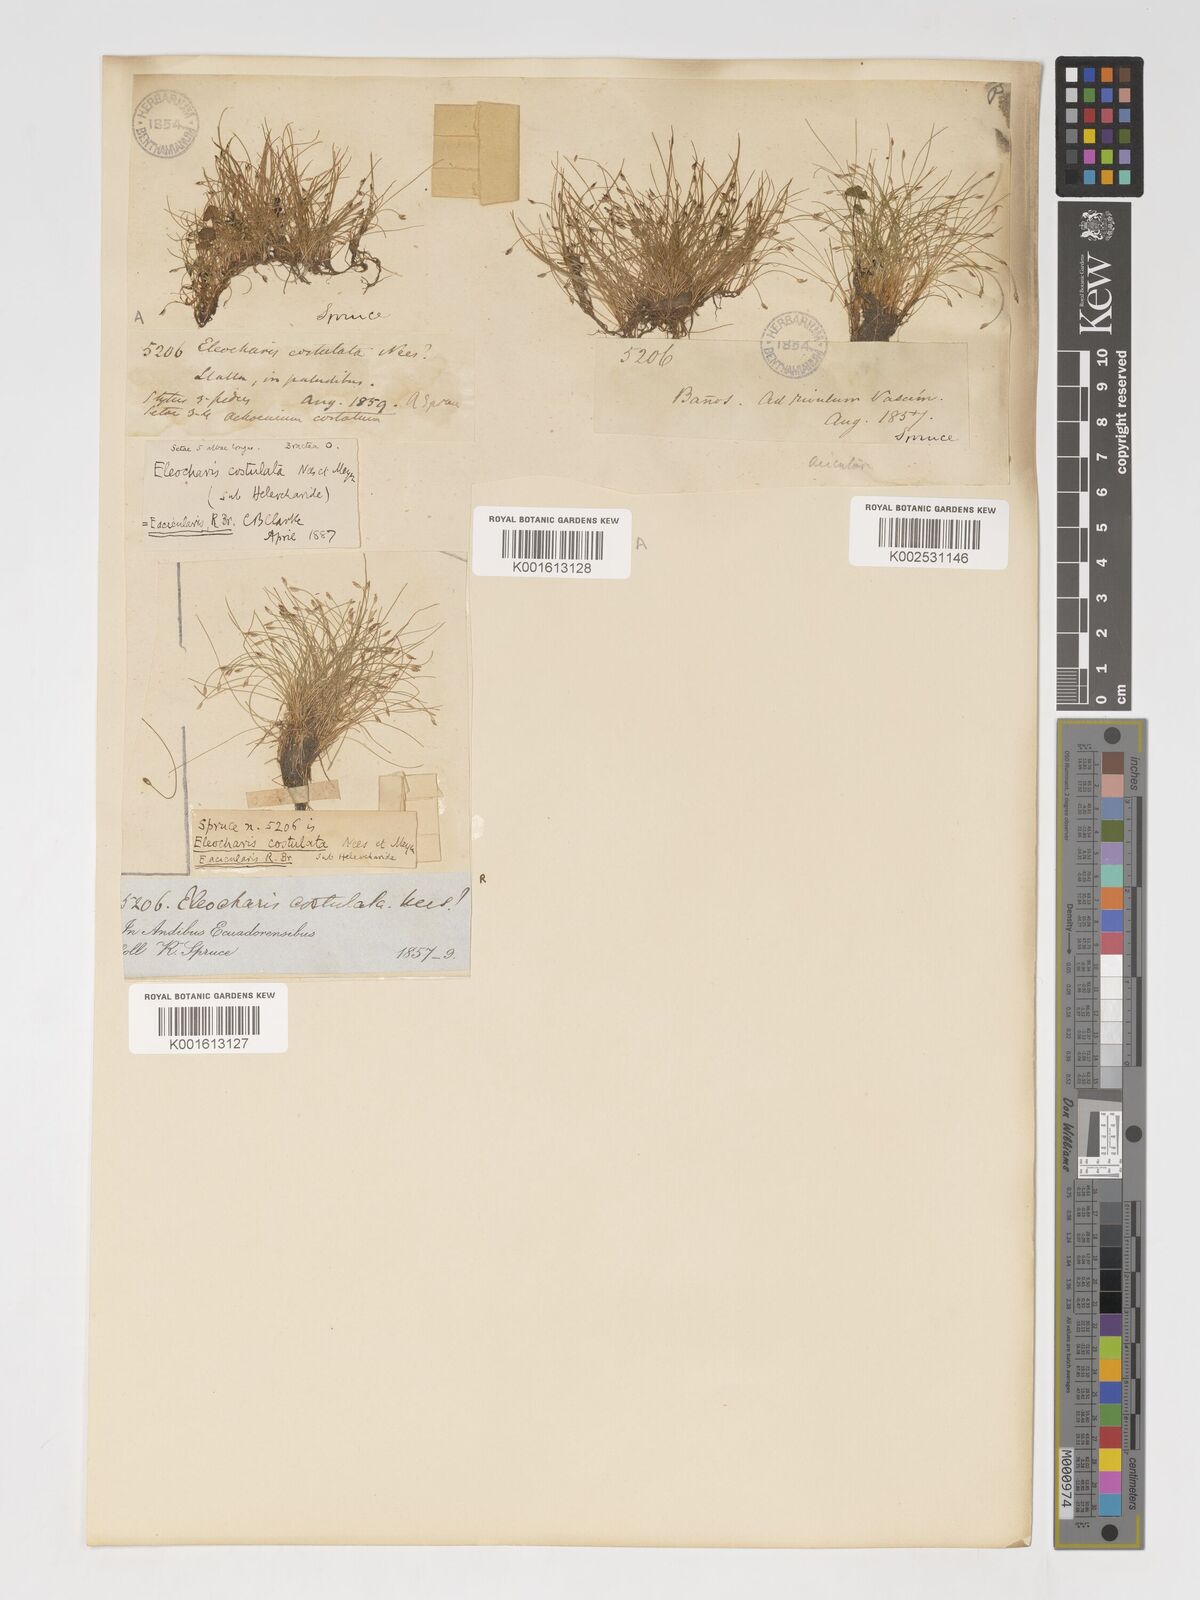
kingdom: Plantae
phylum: Tracheophyta
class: Liliopsida
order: Poales
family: Cyperaceae
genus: Eleocharis
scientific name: Eleocharis acicularis
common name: Needle spike-rush
